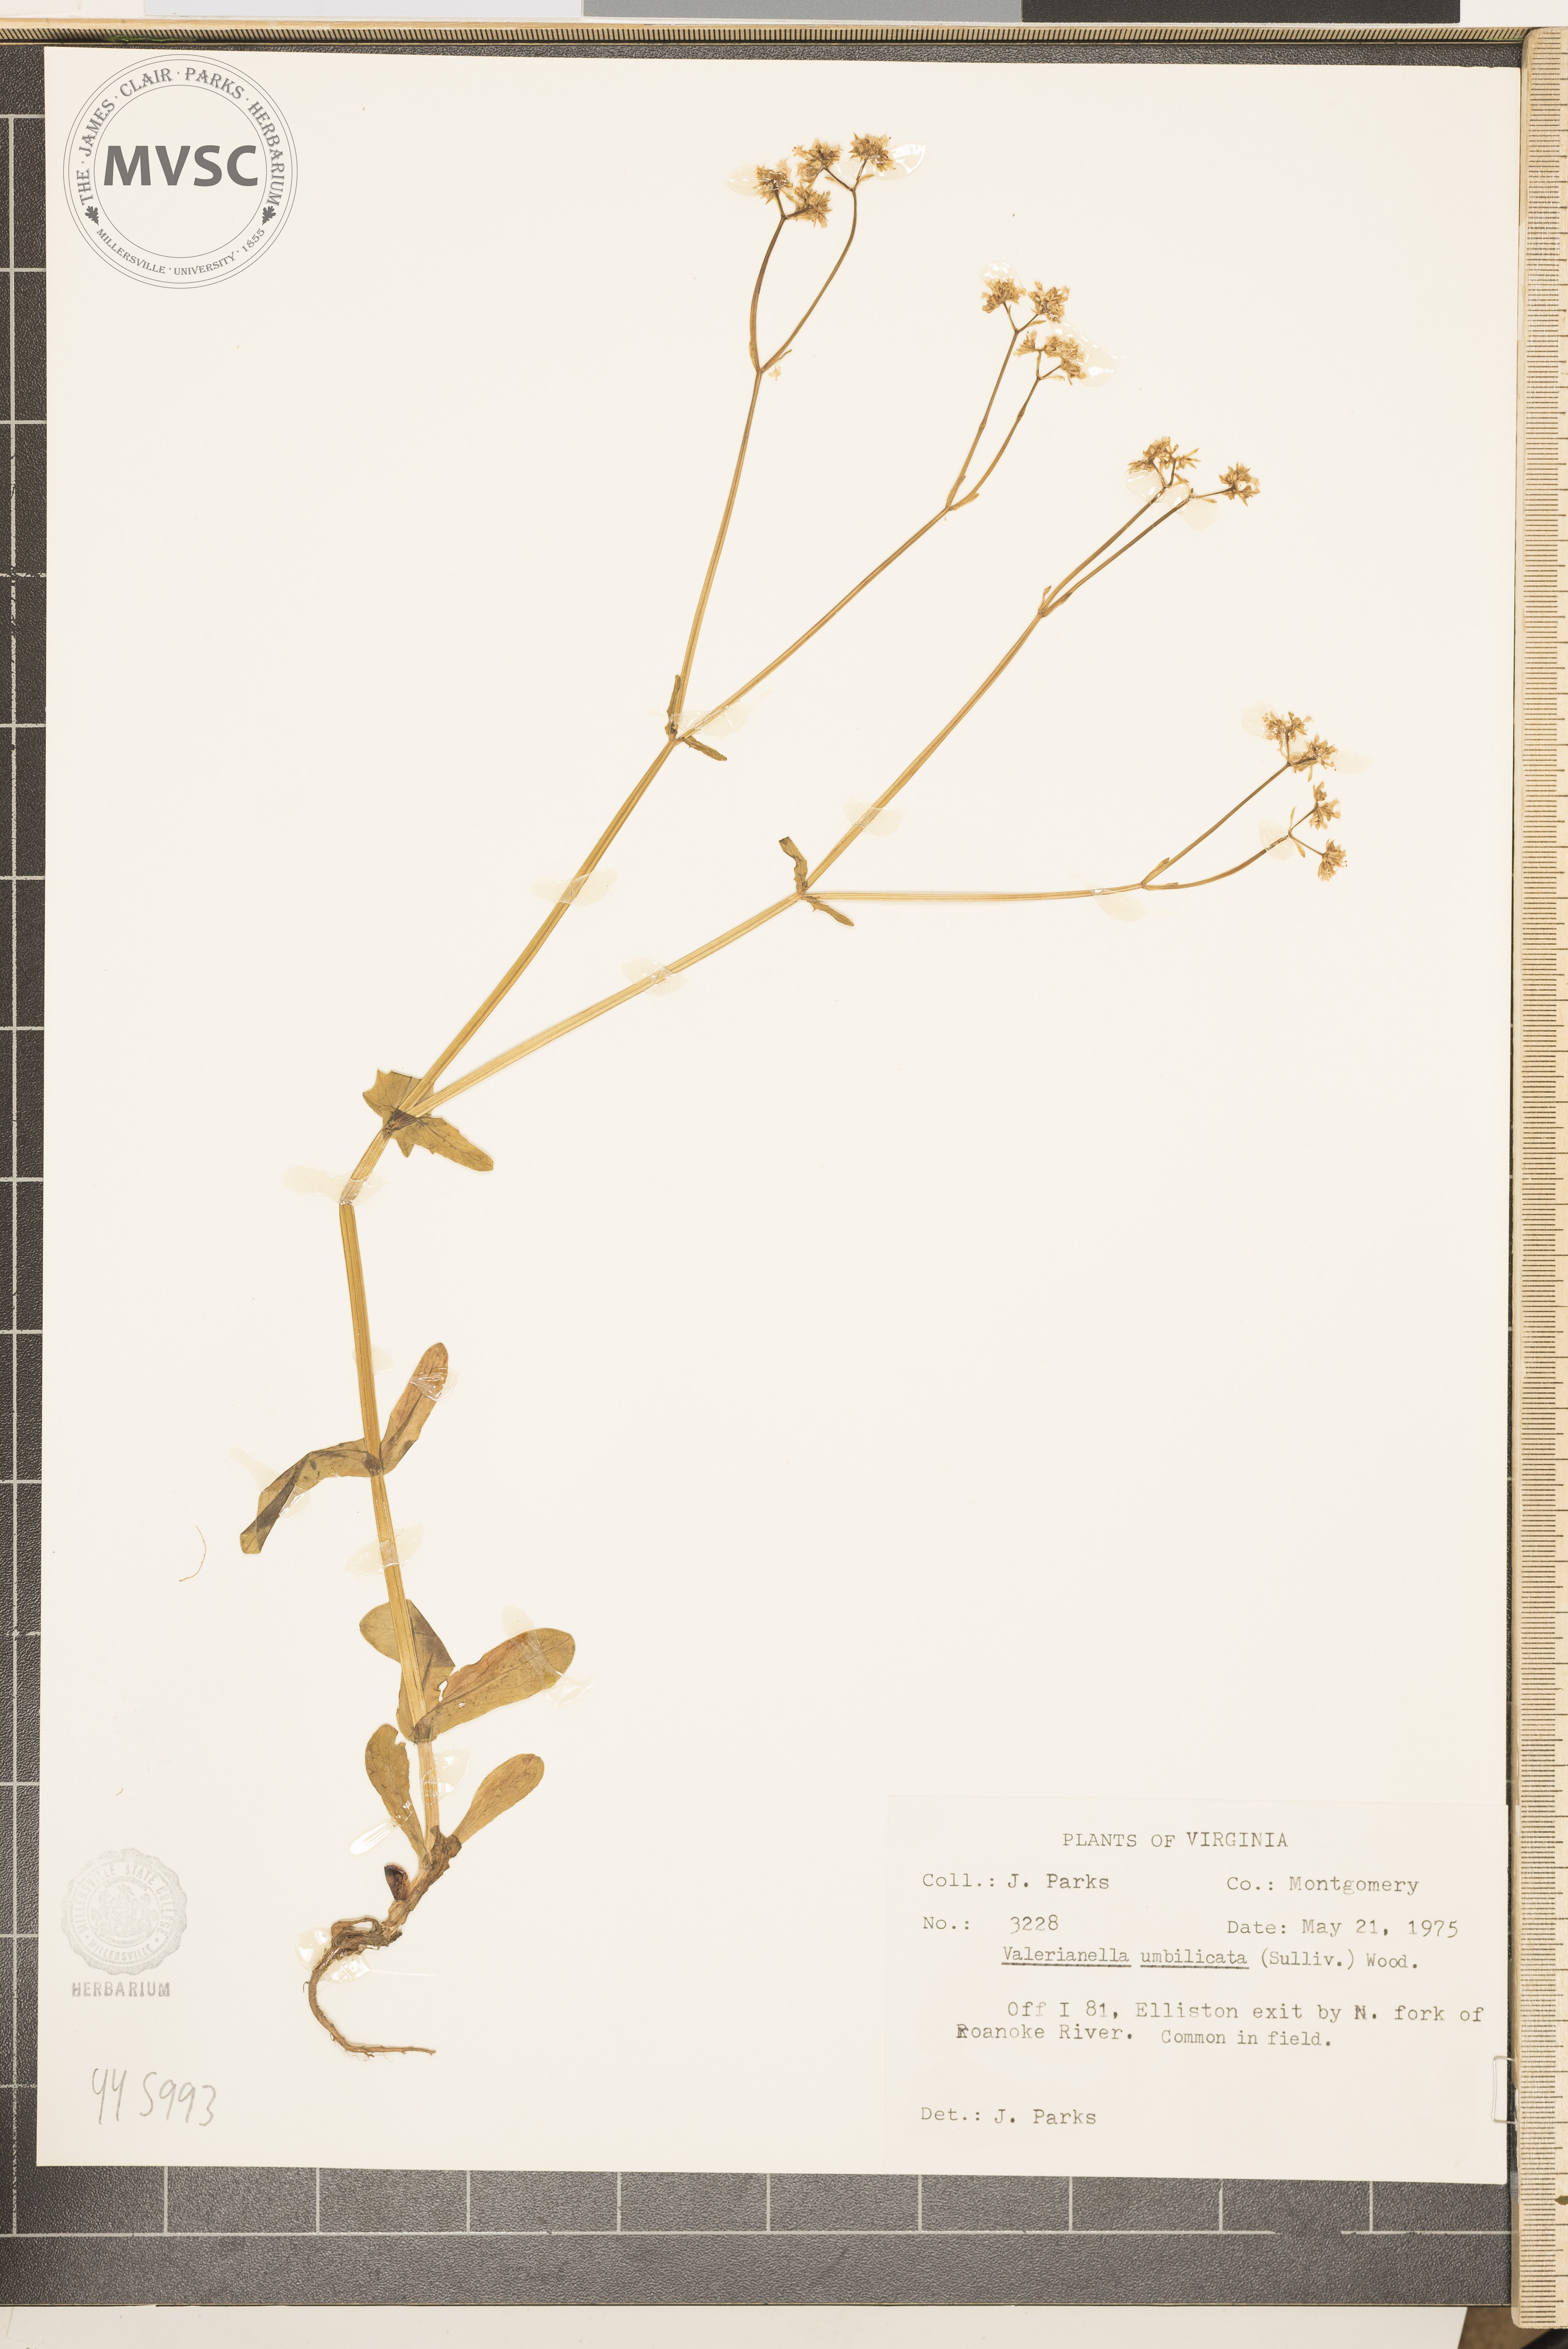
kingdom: Plantae
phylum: Tracheophyta
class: Magnoliopsida
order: Dipsacales
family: Caprifoliaceae
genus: Valerianella
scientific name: Valerianella umbilicata
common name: Wood's cornsalad
